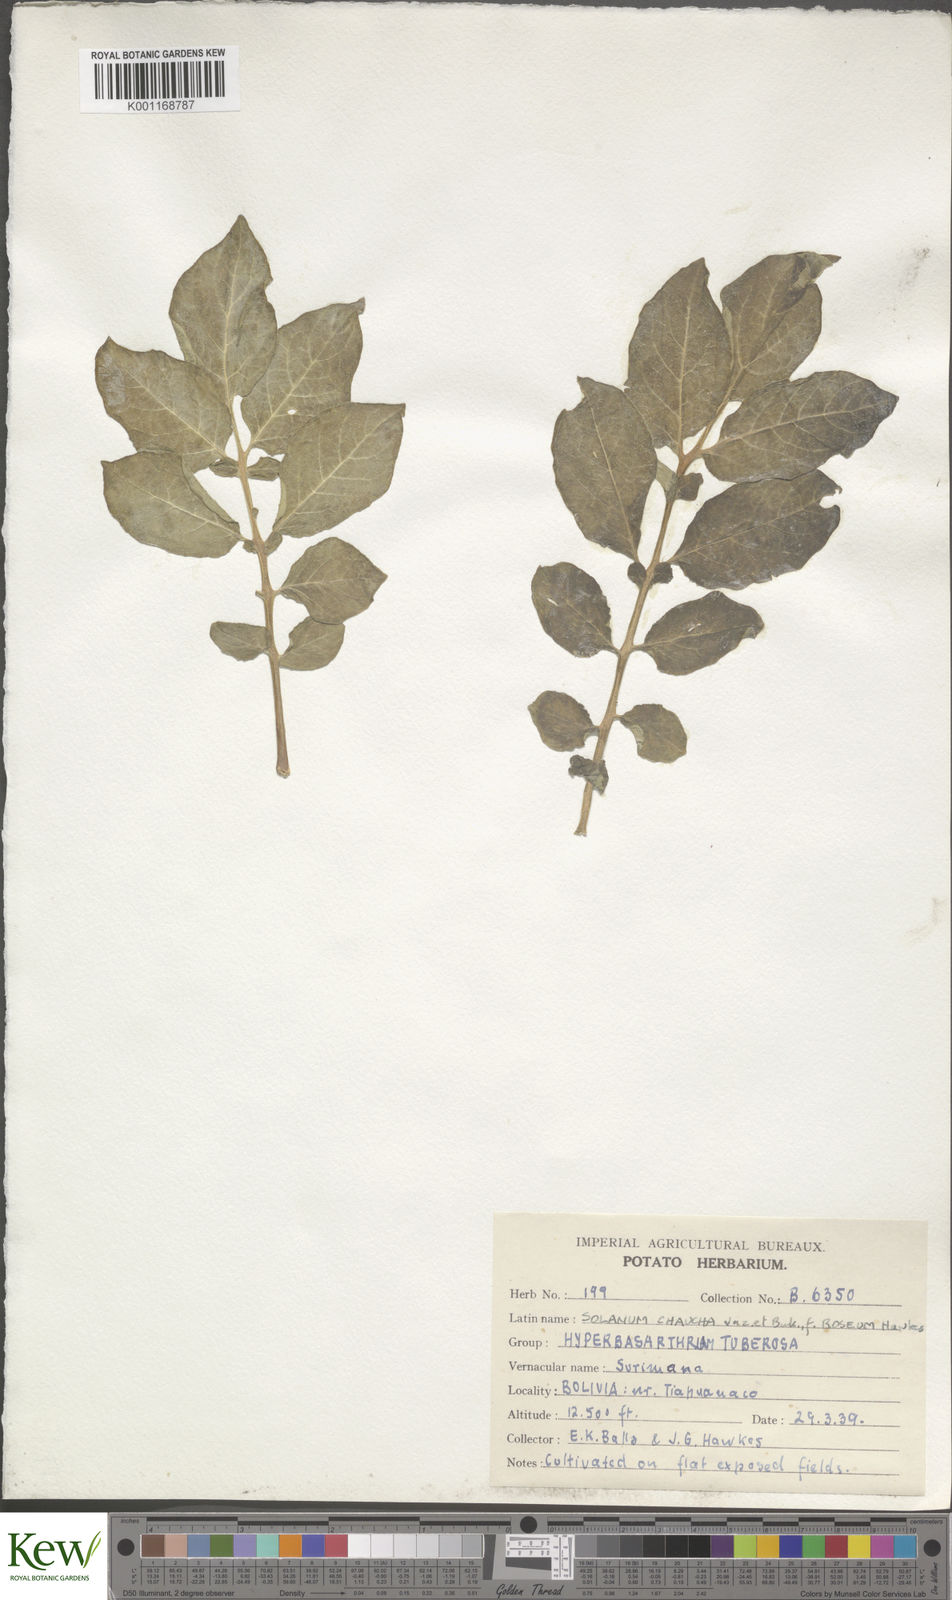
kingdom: Plantae
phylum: Tracheophyta
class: Magnoliopsida
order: Solanales
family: Solanaceae
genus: Solanum
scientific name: Solanum chaucha
